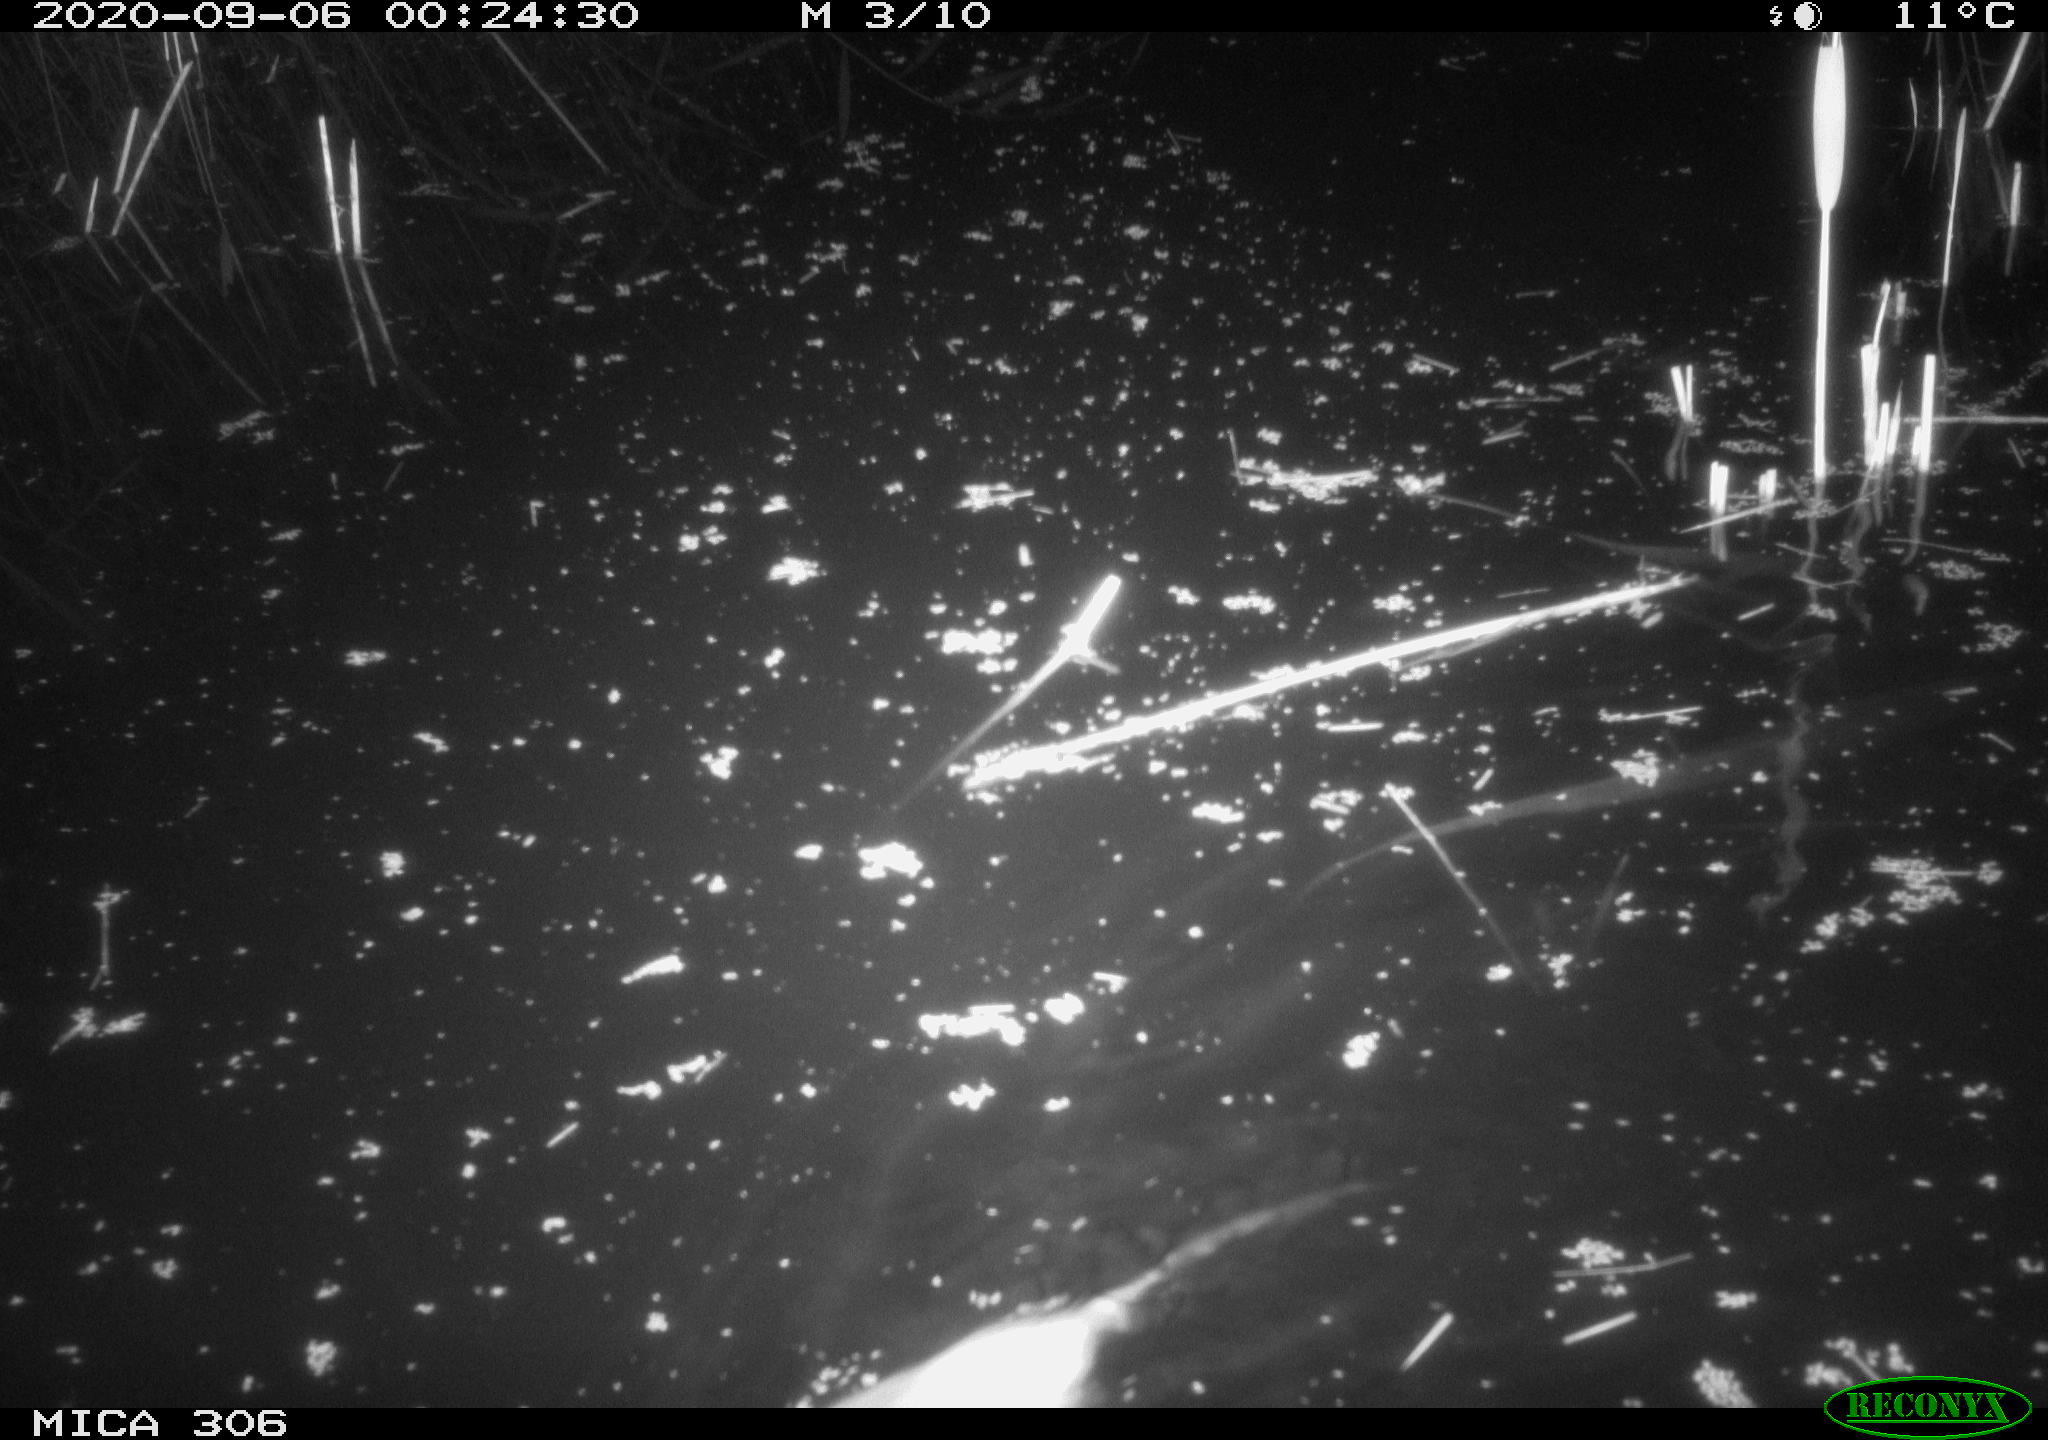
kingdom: Animalia
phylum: Chordata
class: Mammalia
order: Rodentia
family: Cricetidae
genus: Ondatra
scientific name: Ondatra zibethicus
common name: Muskrat
